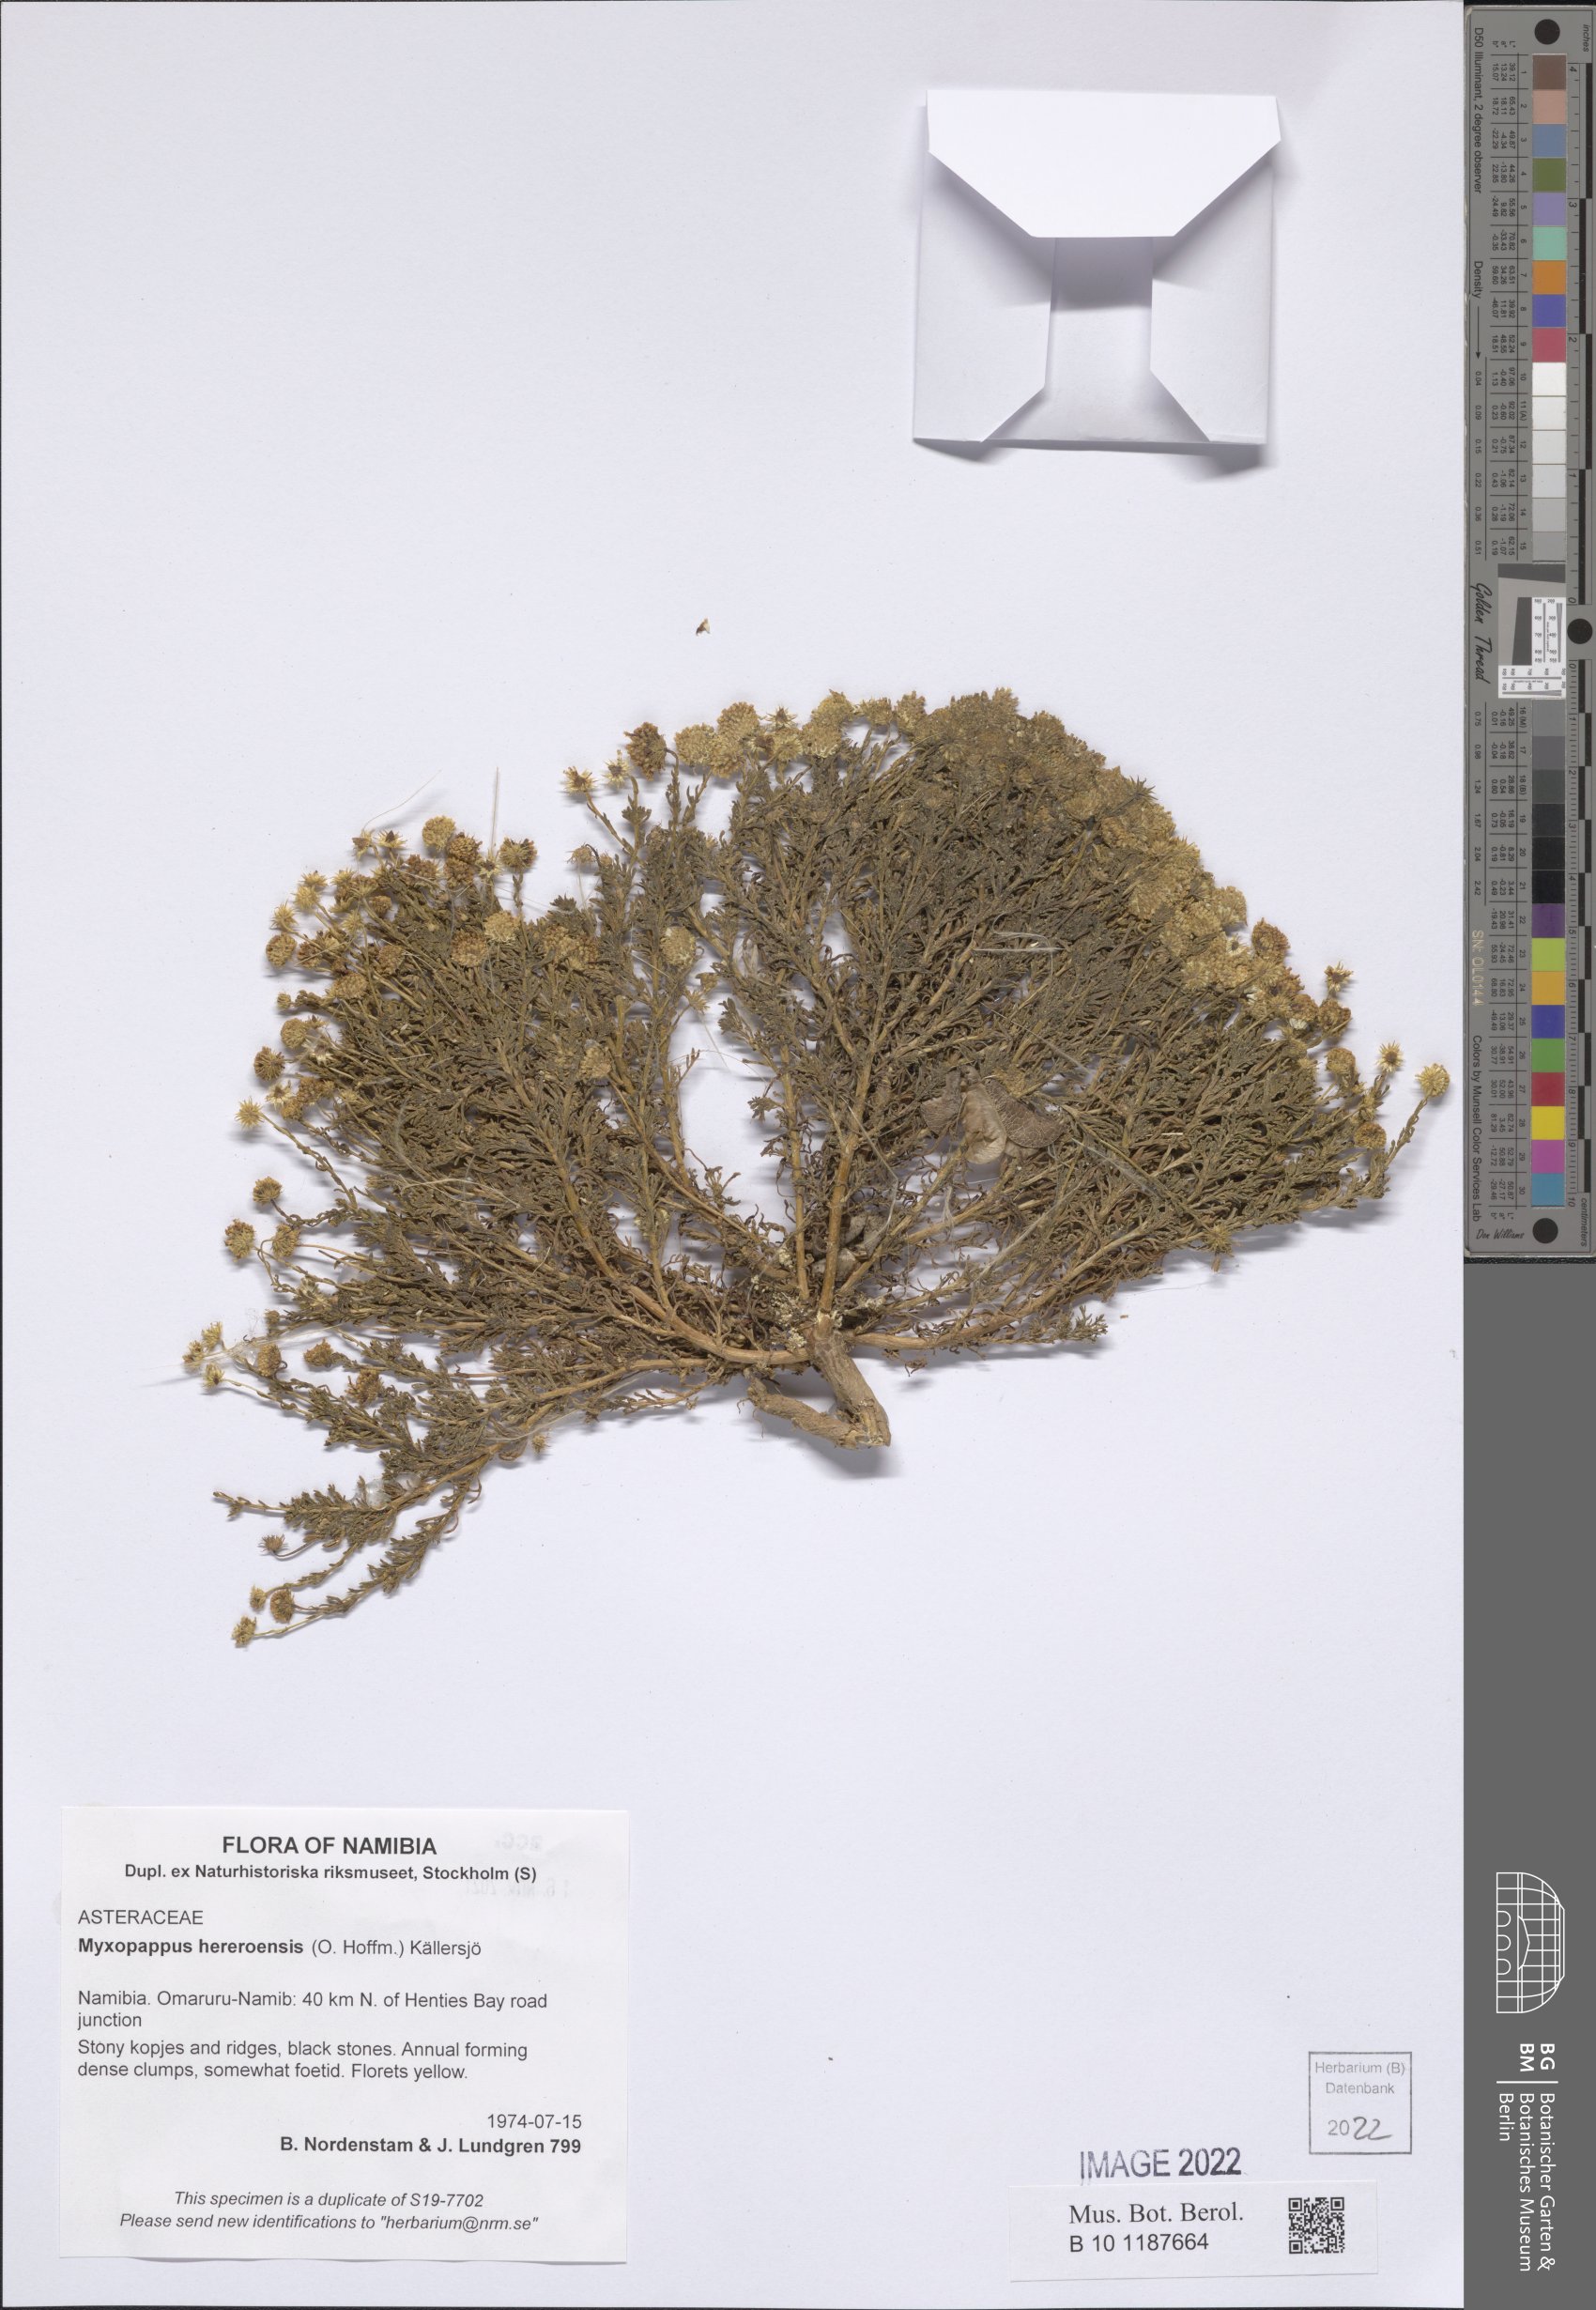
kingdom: Plantae
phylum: Tracheophyta
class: Magnoliopsida
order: Asterales
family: Asteraceae
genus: Myxopappus
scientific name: Myxopappus hereroensis
